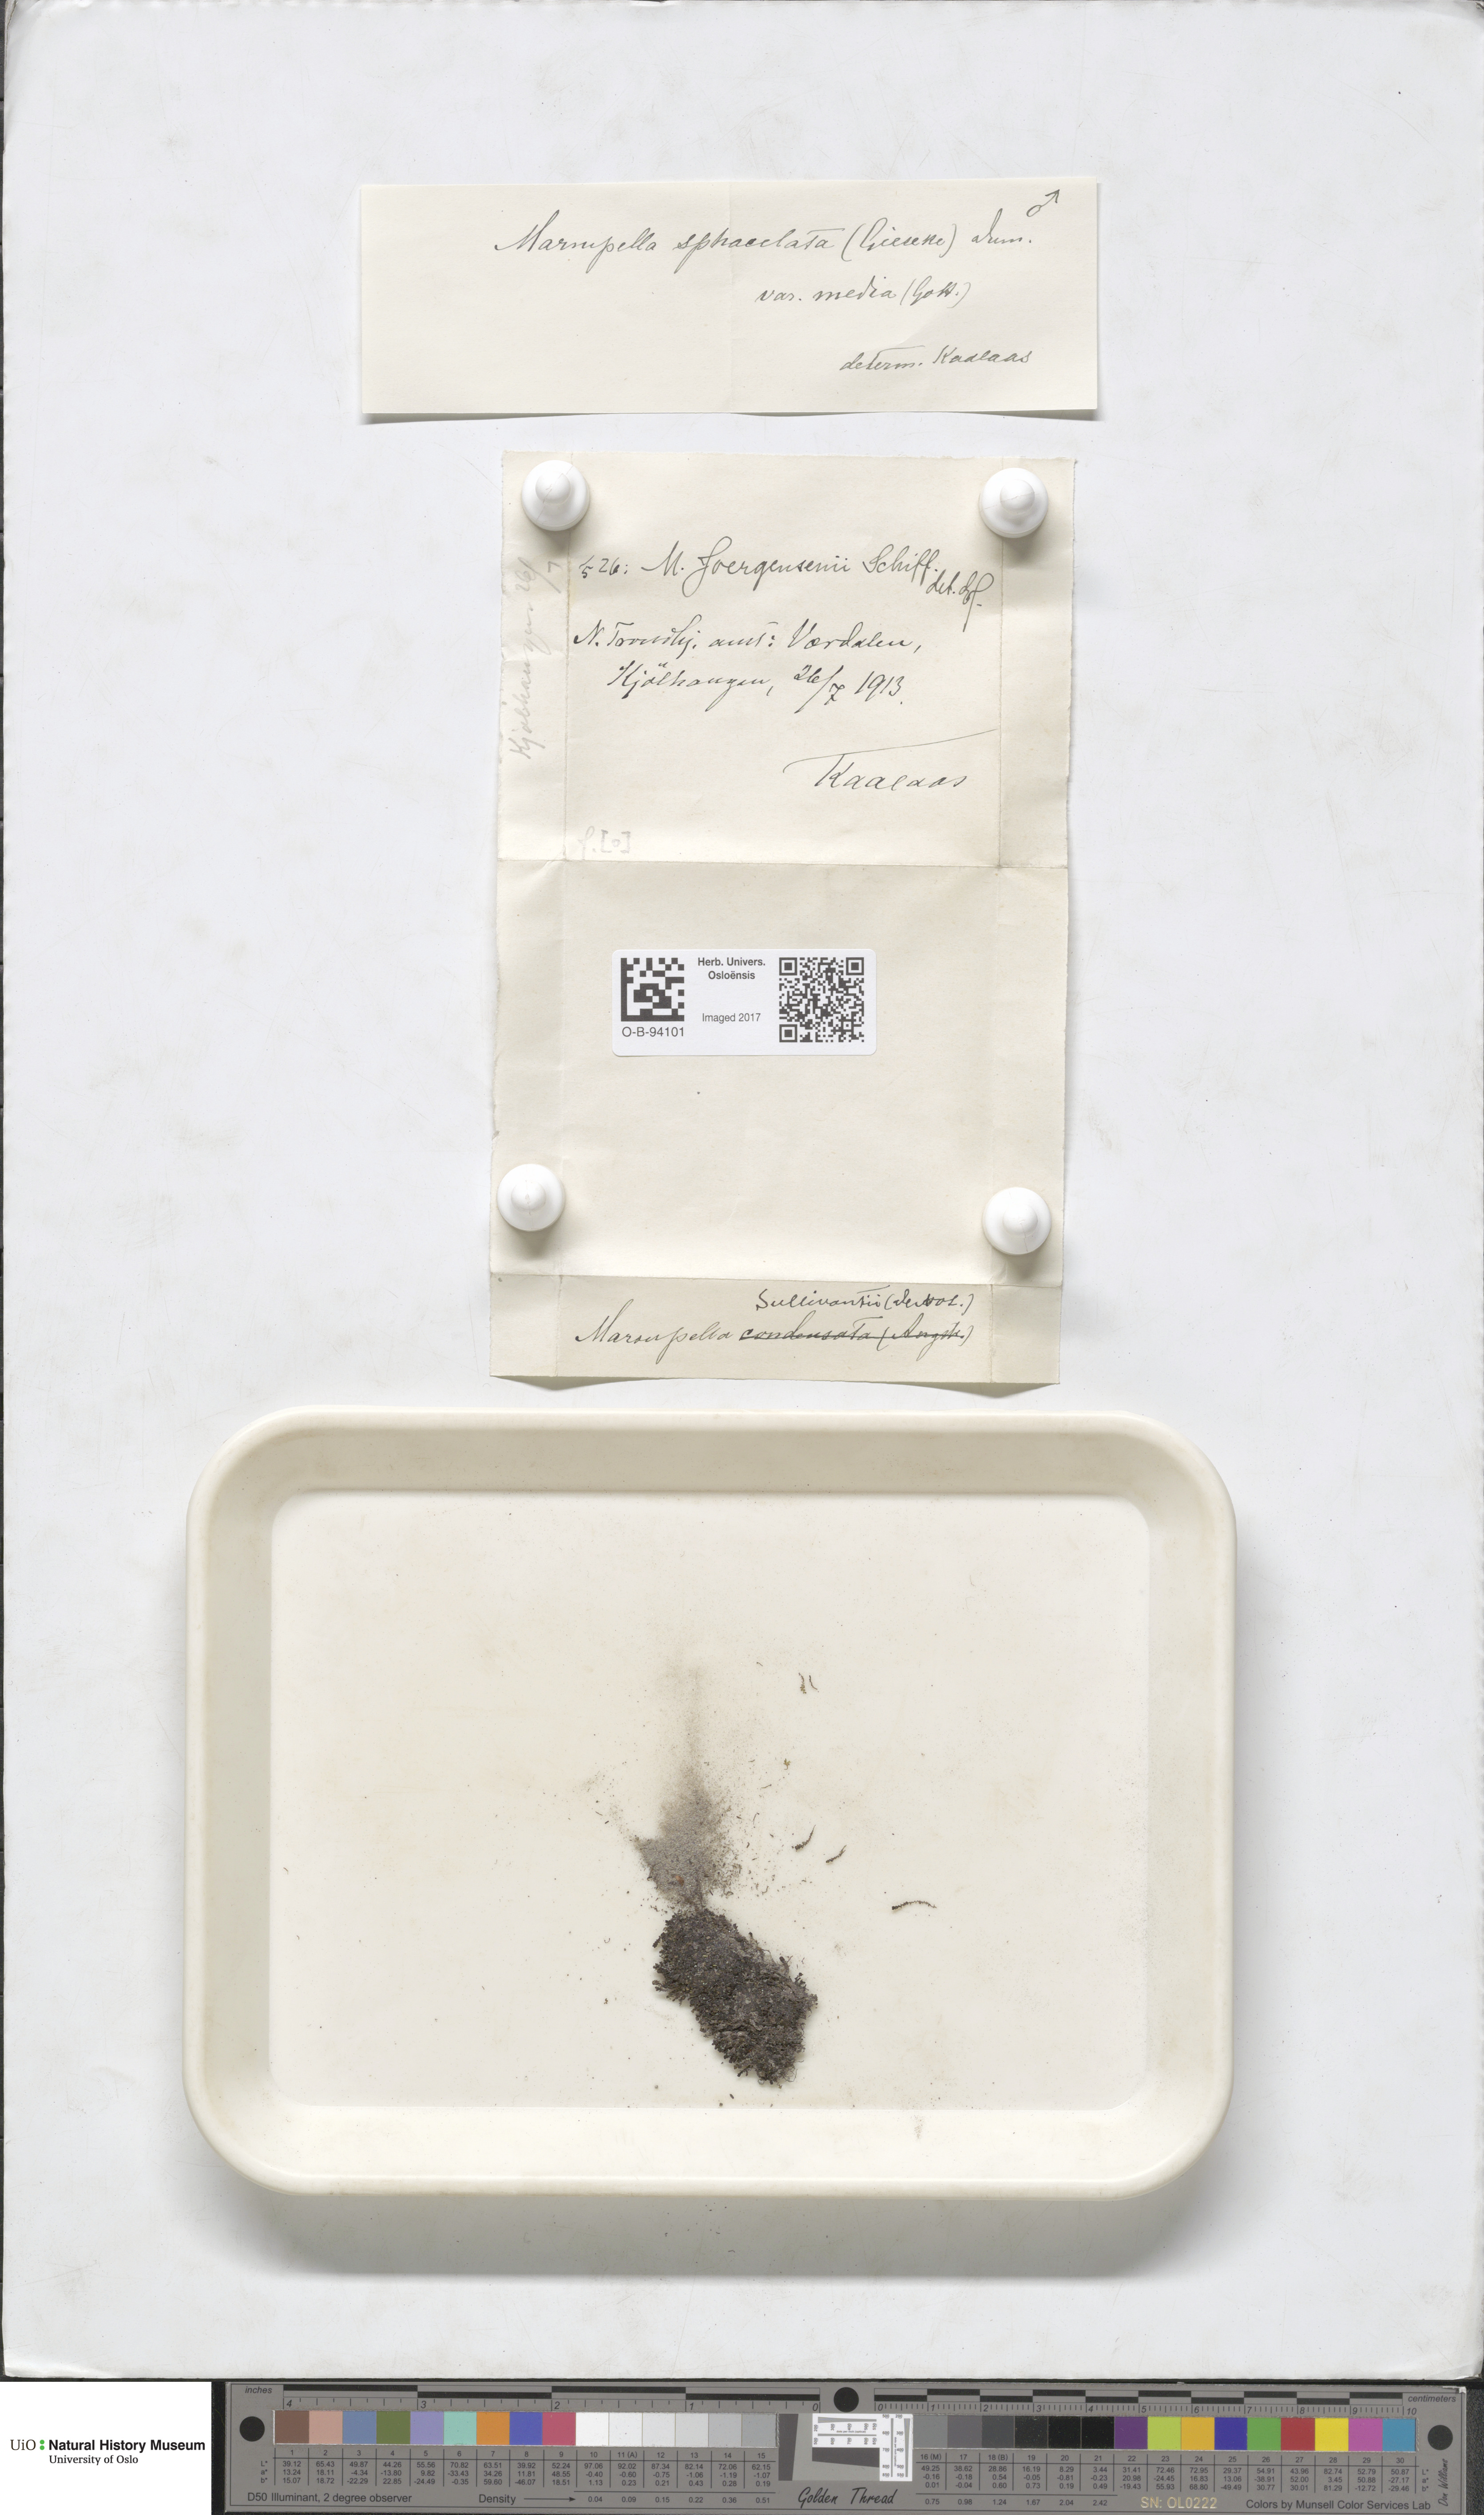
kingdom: Plantae
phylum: Marchantiophyta
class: Jungermanniopsida
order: Jungermanniales
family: Gymnomitriaceae
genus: Marsupella
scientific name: Marsupella sphacelata
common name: Speckled rustwort
